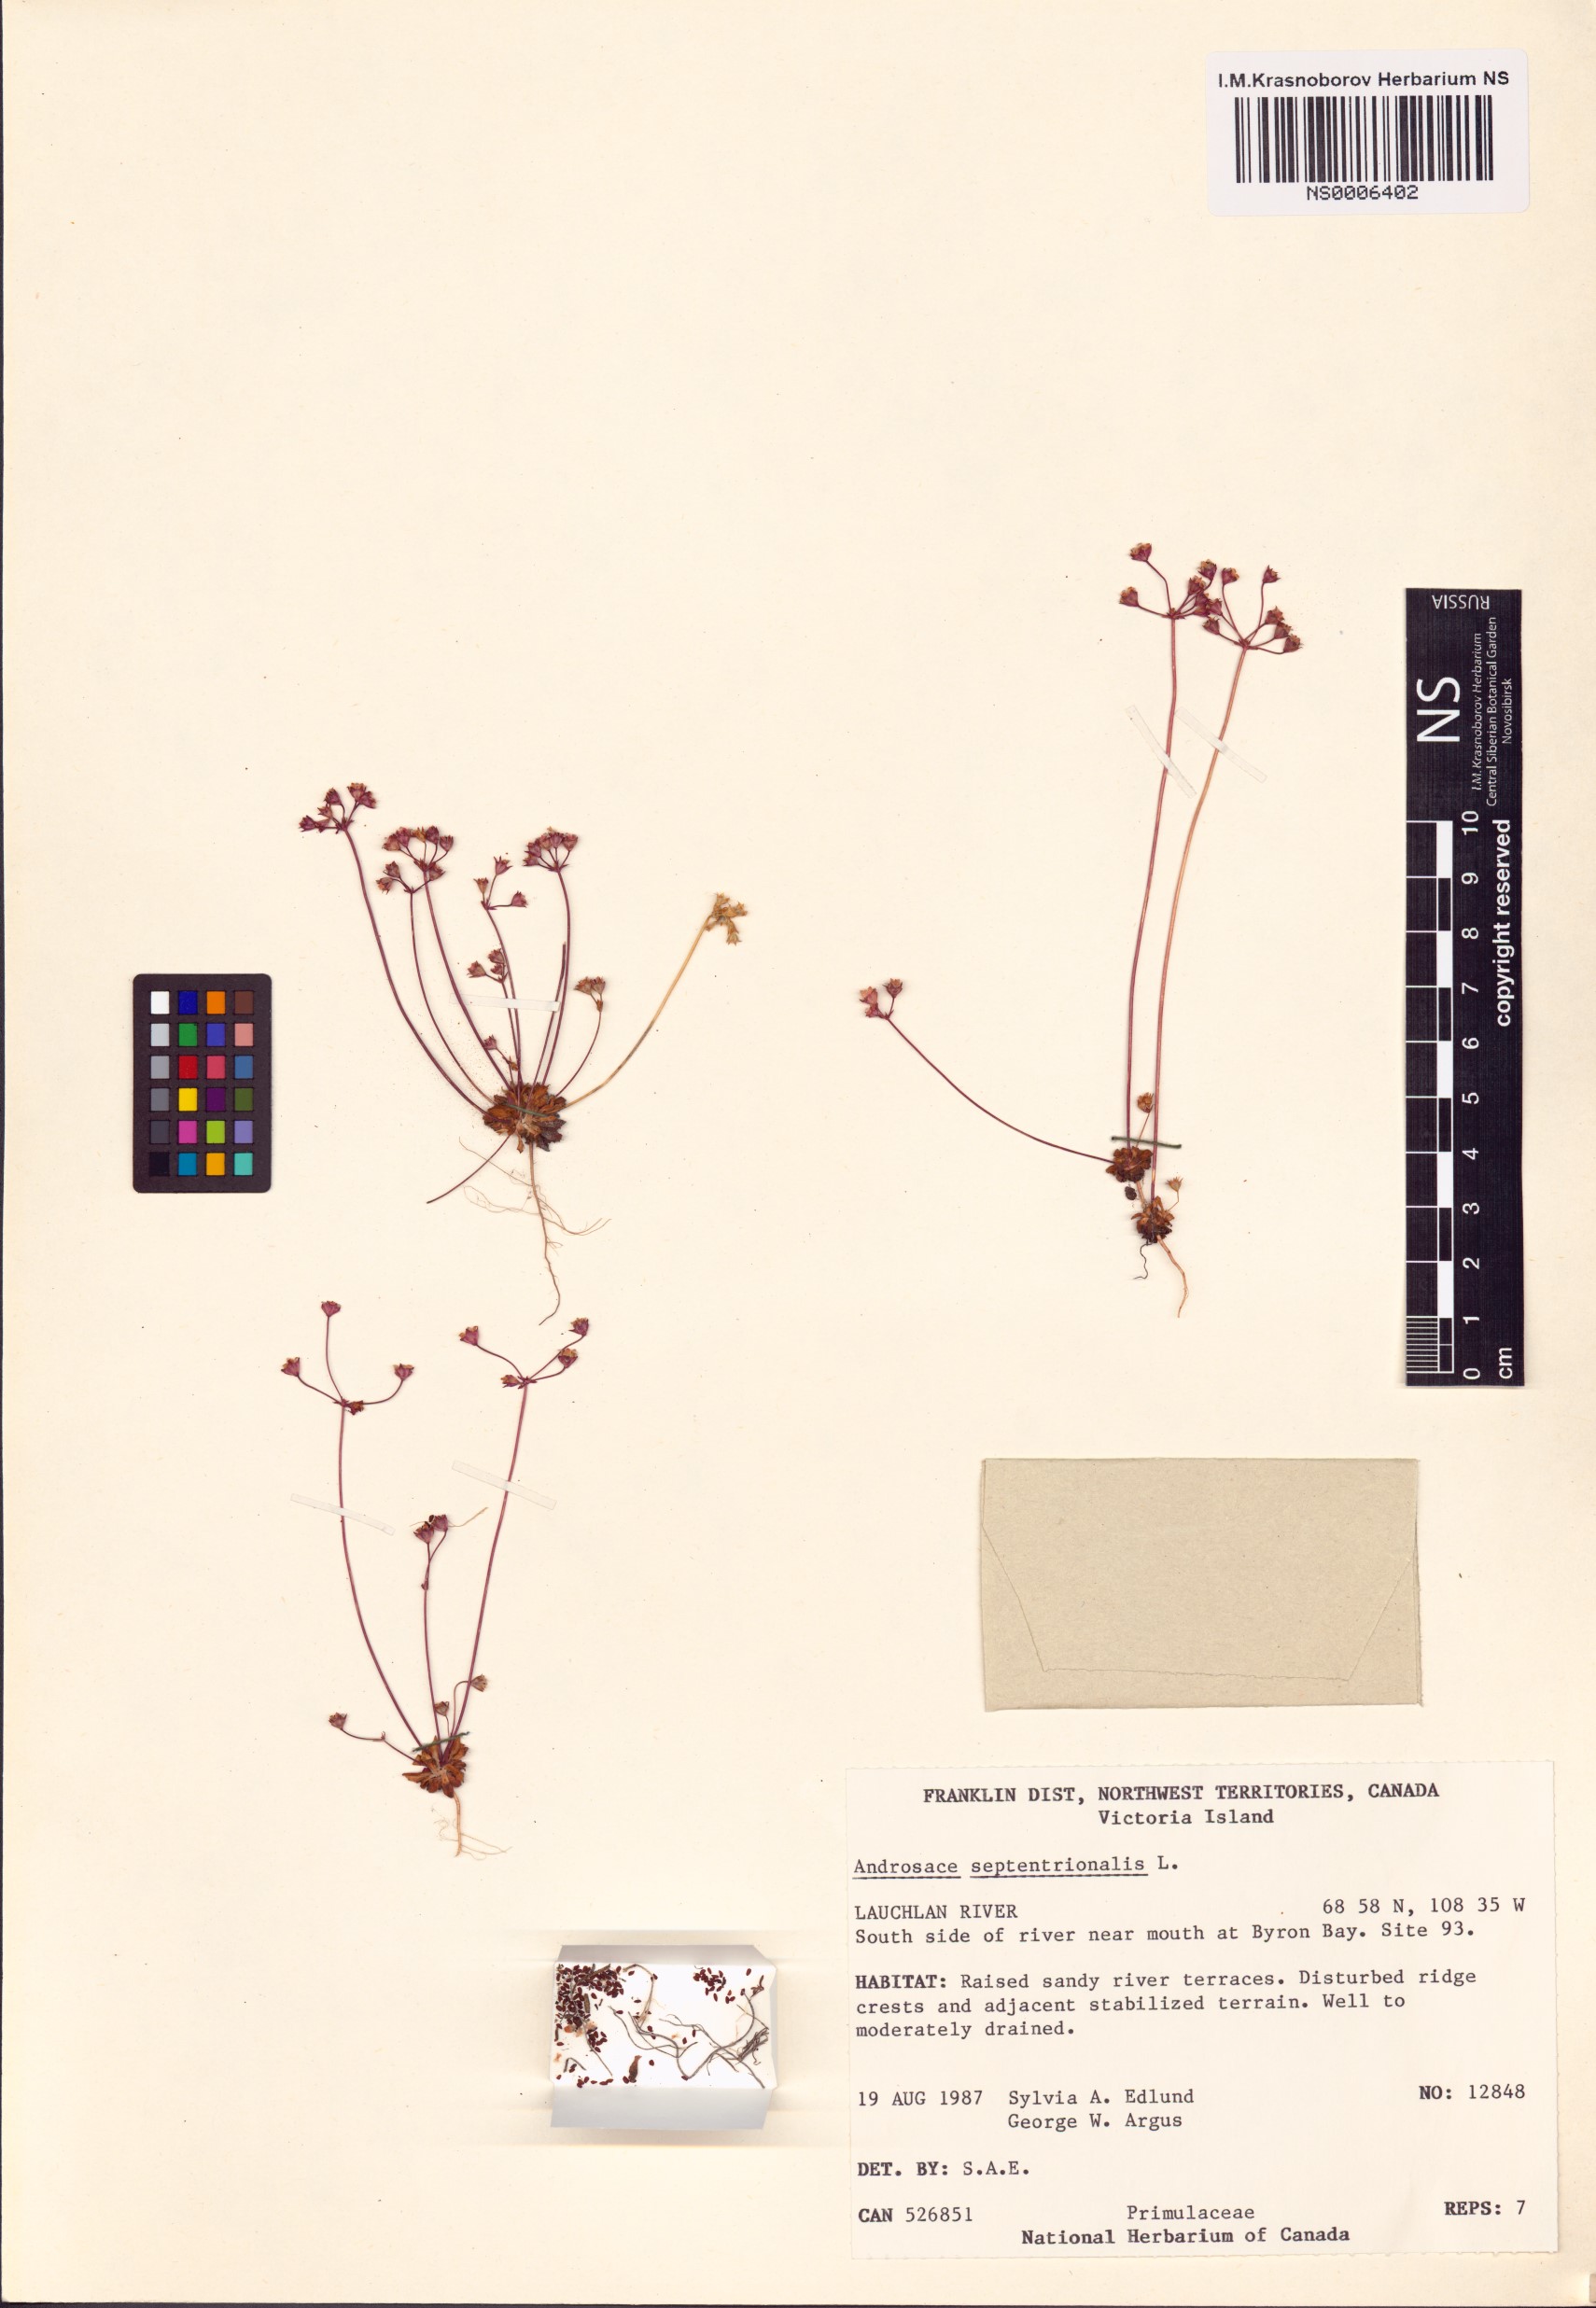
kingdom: Plantae
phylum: Tracheophyta
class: Magnoliopsida
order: Ericales
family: Primulaceae
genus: Androsace
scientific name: Androsace septentrionalis
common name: Hairy northern fairy-candelabra
